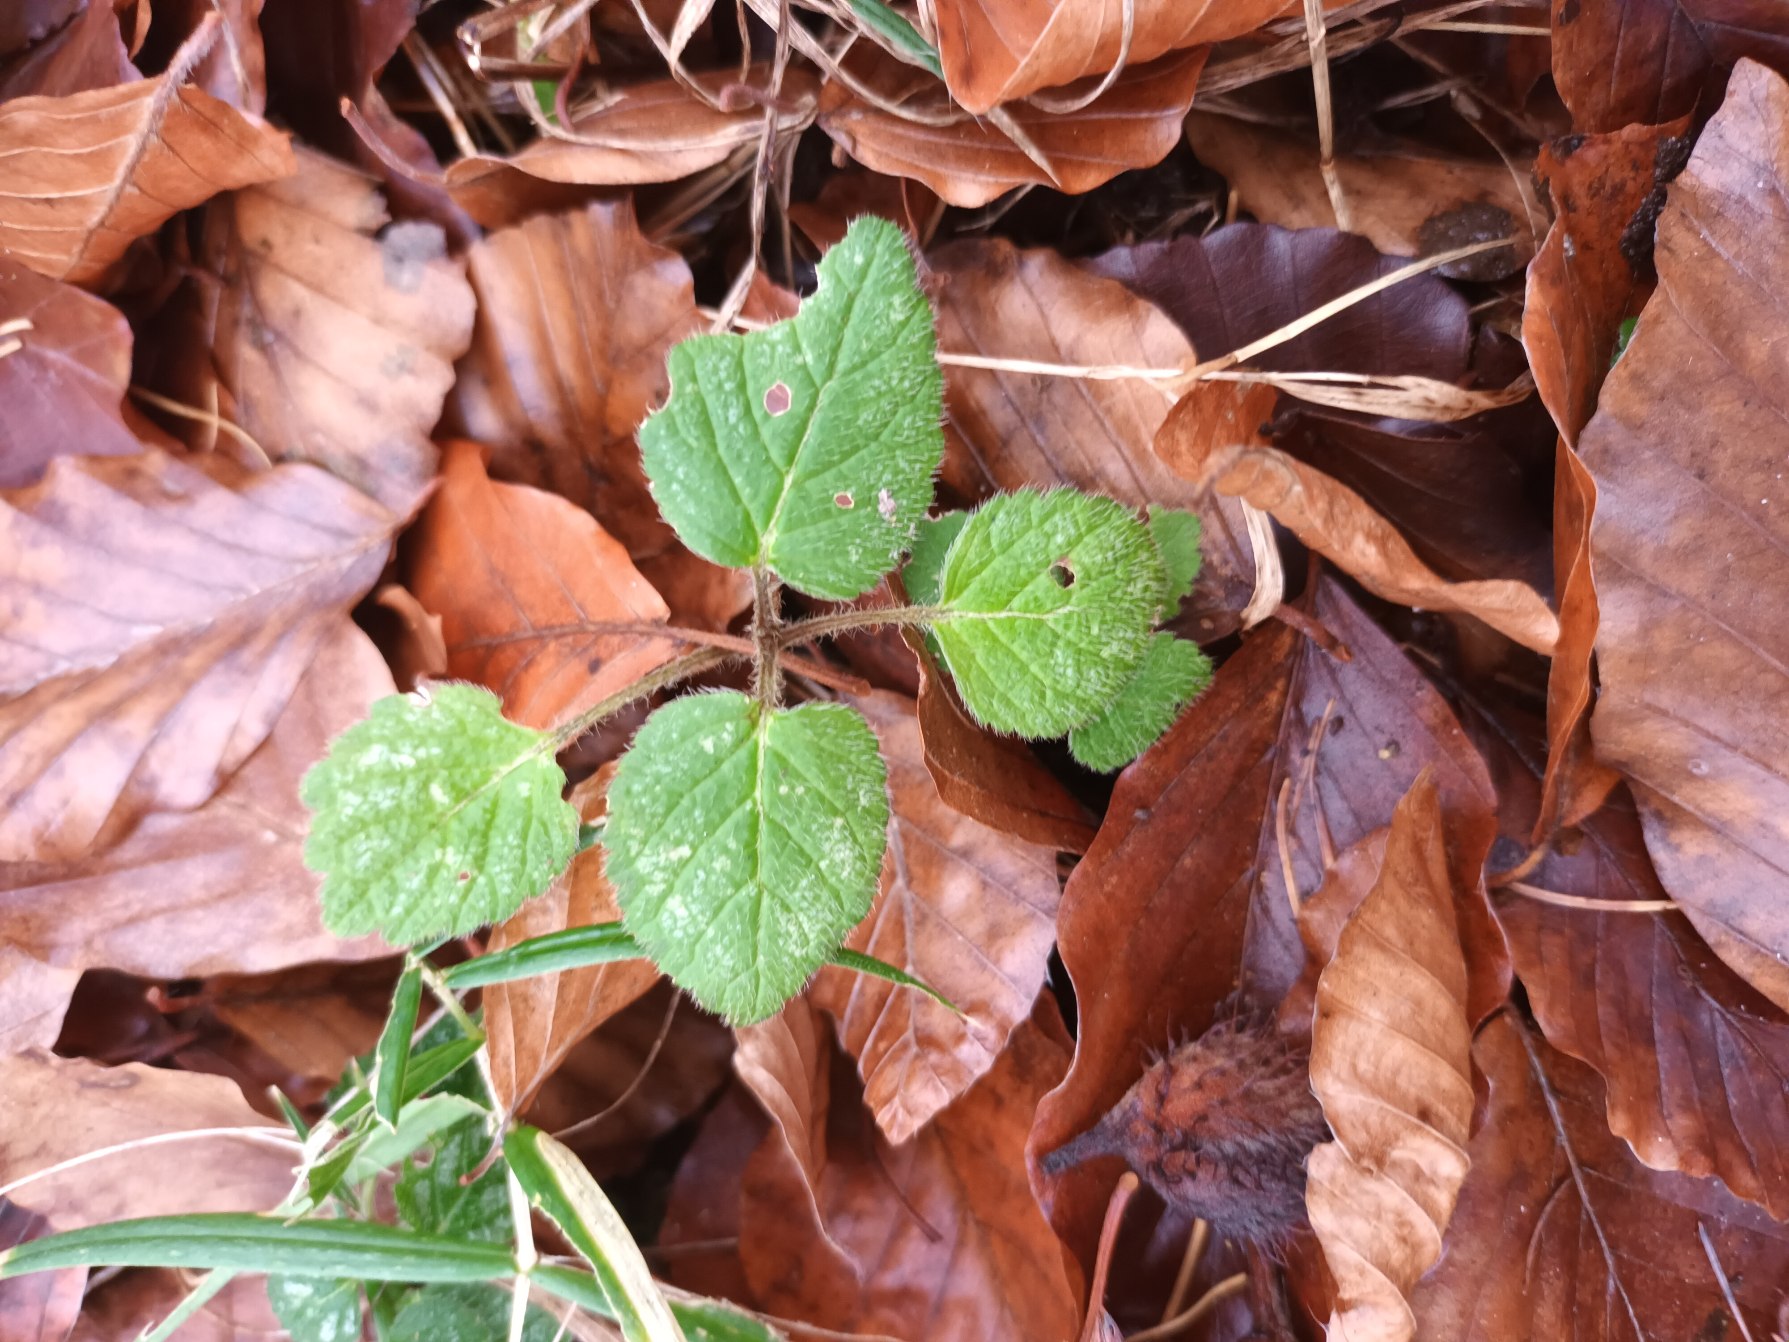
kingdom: Plantae
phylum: Tracheophyta
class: Magnoliopsida
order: Lamiales
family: Lamiaceae
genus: Lamium
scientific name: Lamium galeobdolon
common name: Guldnælde
